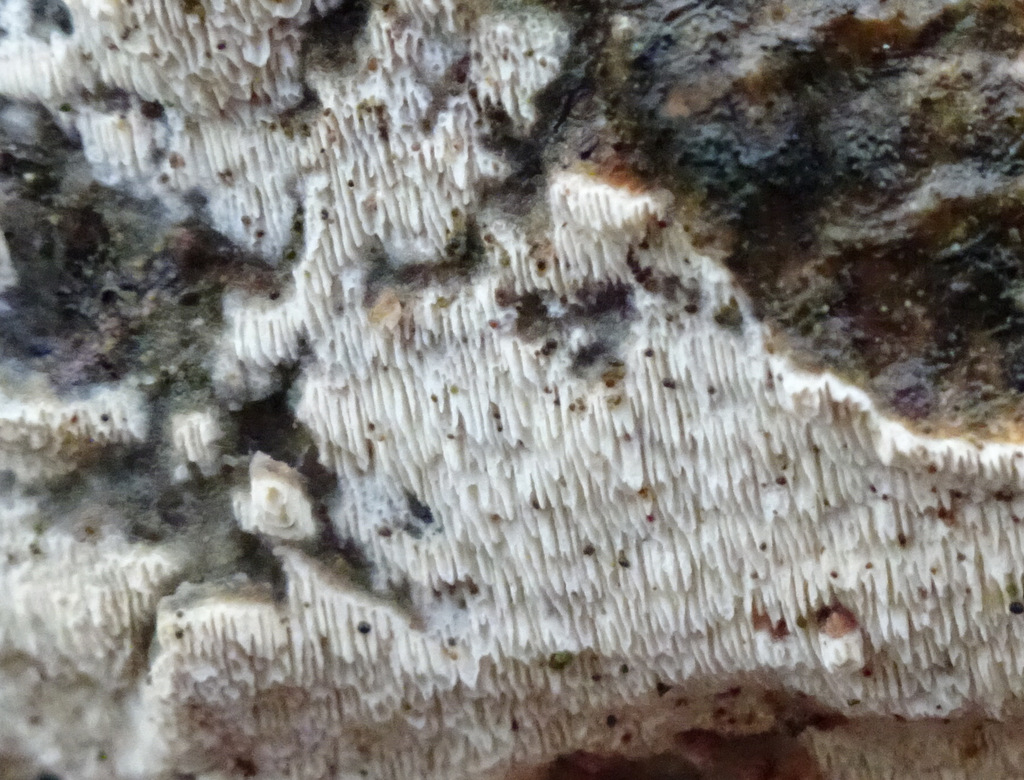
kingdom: Fungi
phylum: Basidiomycota
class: Agaricomycetes
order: Hymenochaetales
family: Schizoporaceae
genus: Xylodon
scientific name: Xylodon
